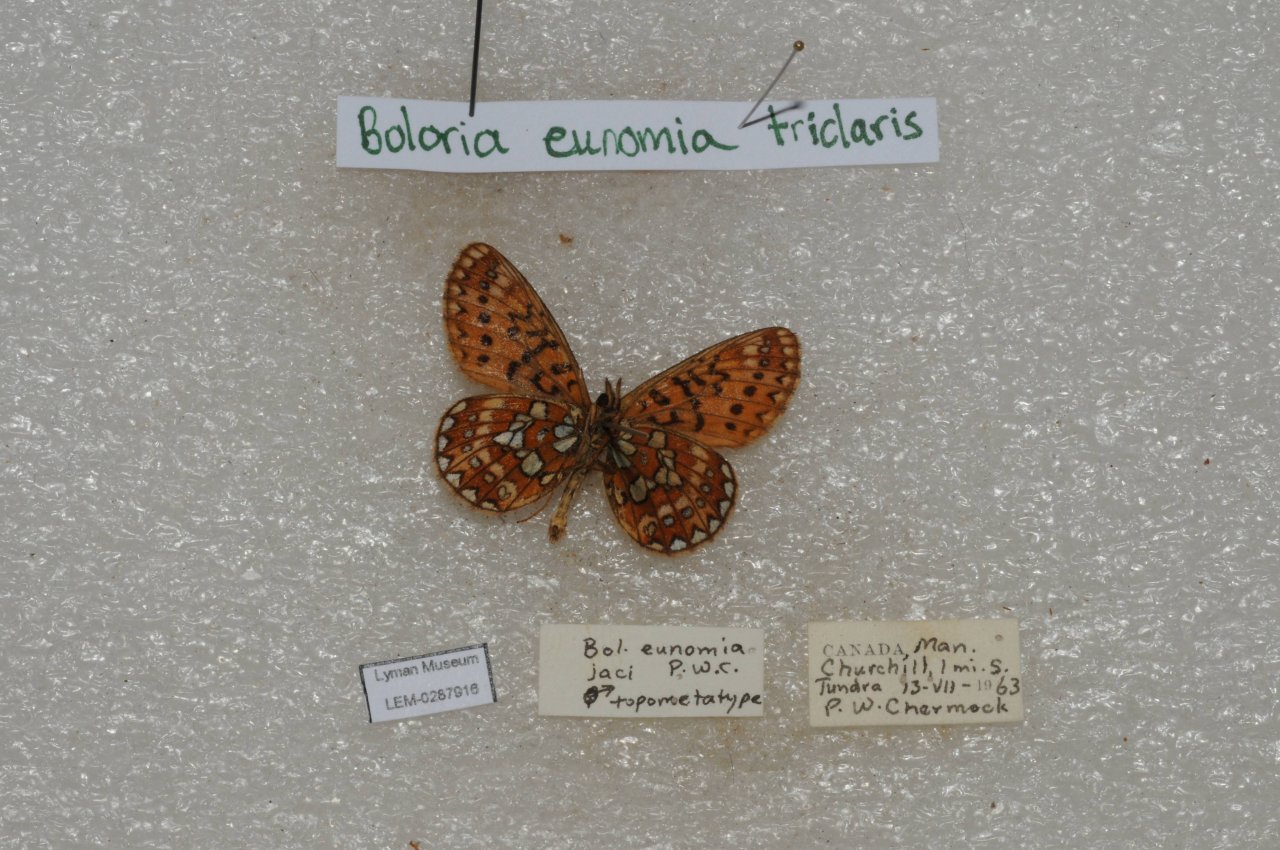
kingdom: Animalia
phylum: Arthropoda
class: Insecta
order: Lepidoptera
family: Nymphalidae
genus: Boloria
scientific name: Boloria eunomia
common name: Bog Fritillary
